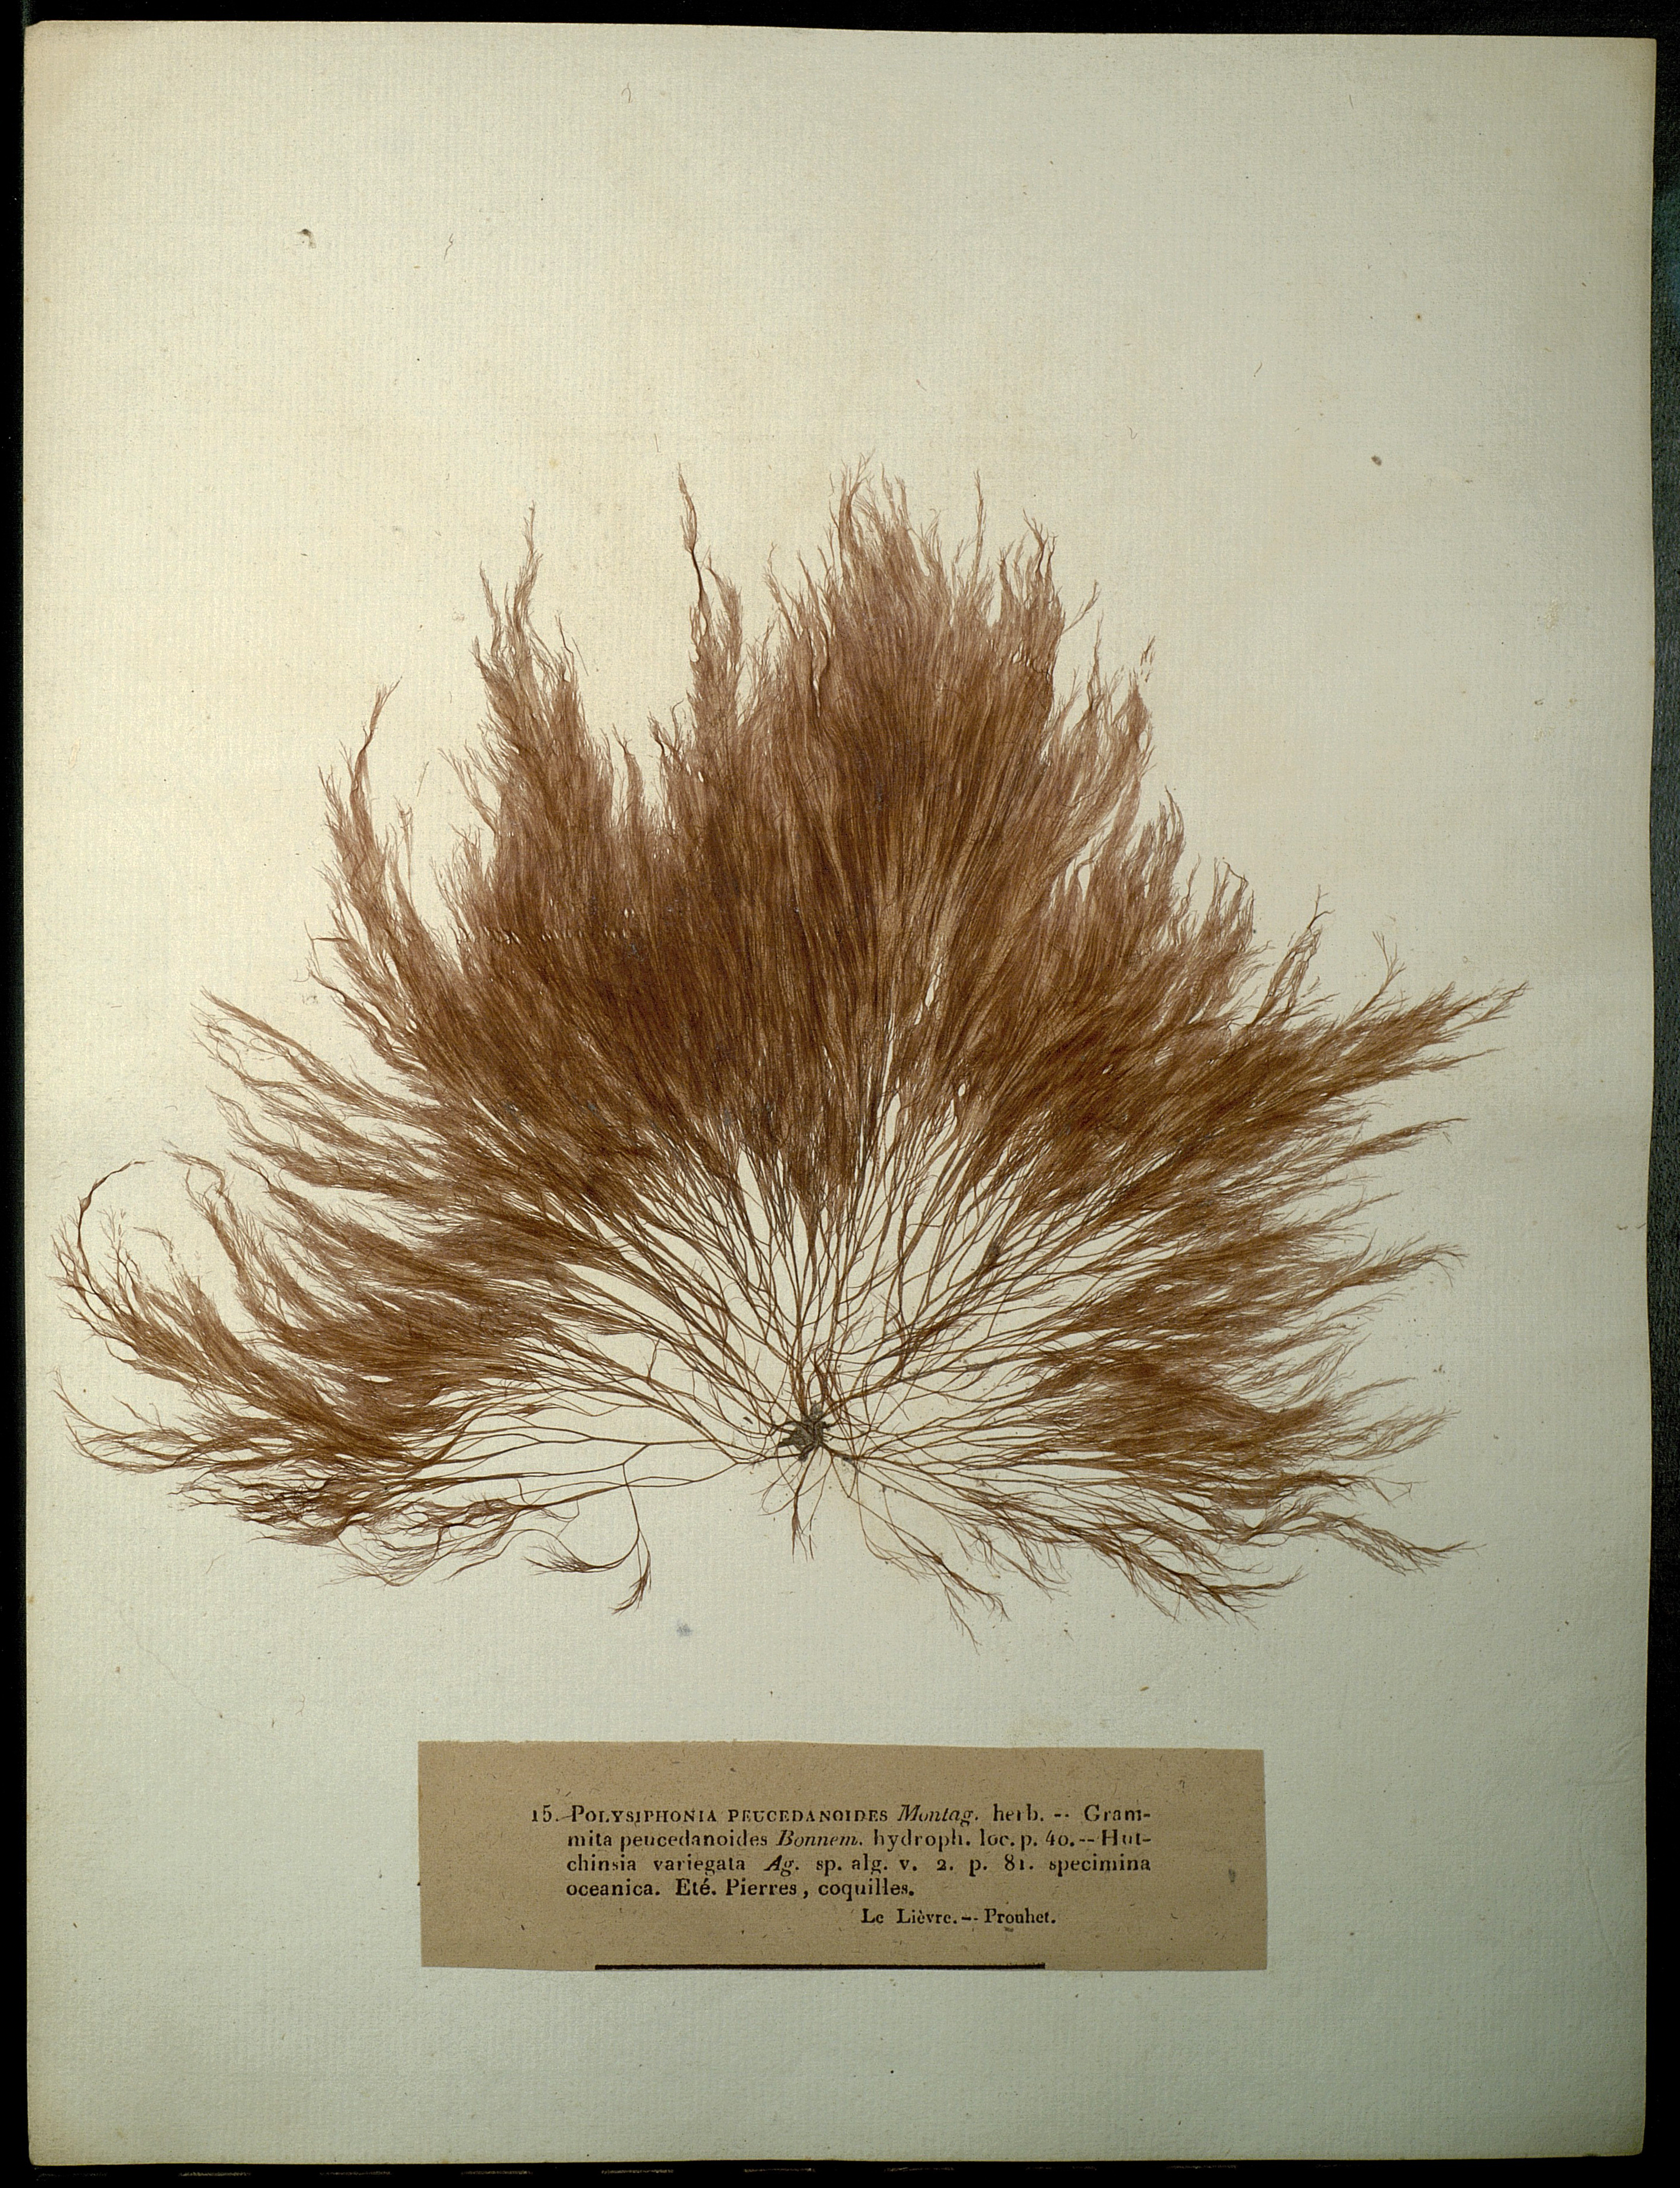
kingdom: Plantae
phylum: Rhodophyta
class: Florideophyceae
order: Ceramiales
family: Rhodomelaceae
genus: Polysiphonia
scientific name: Polysiphonia
